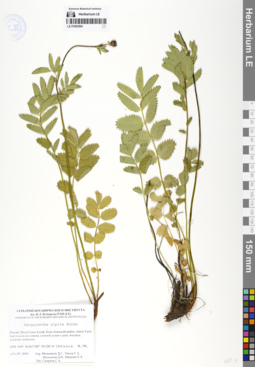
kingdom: Plantae
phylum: Tracheophyta
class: Magnoliopsida
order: Rosales
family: Rosaceae
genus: Sanguisorba
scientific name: Sanguisorba alpina
